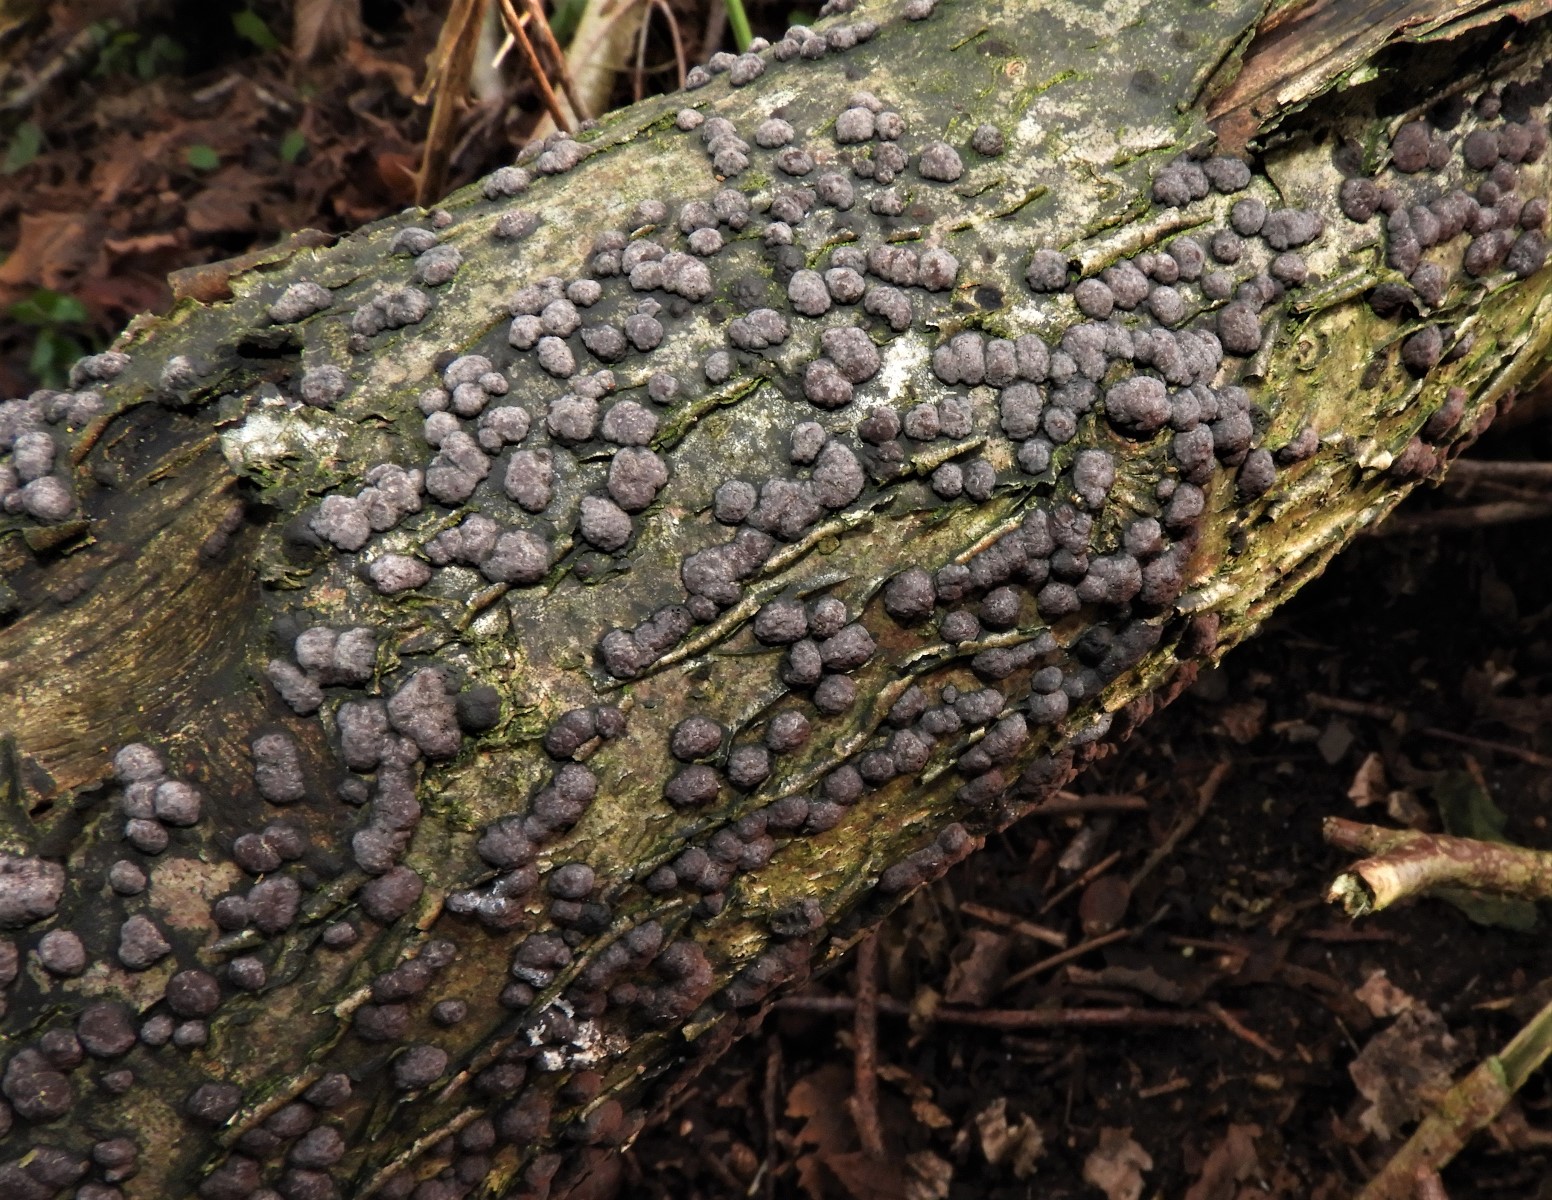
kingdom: Fungi
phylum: Ascomycota
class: Sordariomycetes
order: Xylariales
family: Hypoxylaceae
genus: Hypoxylon
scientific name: Hypoxylon fuscum
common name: kegleformet kulbær
